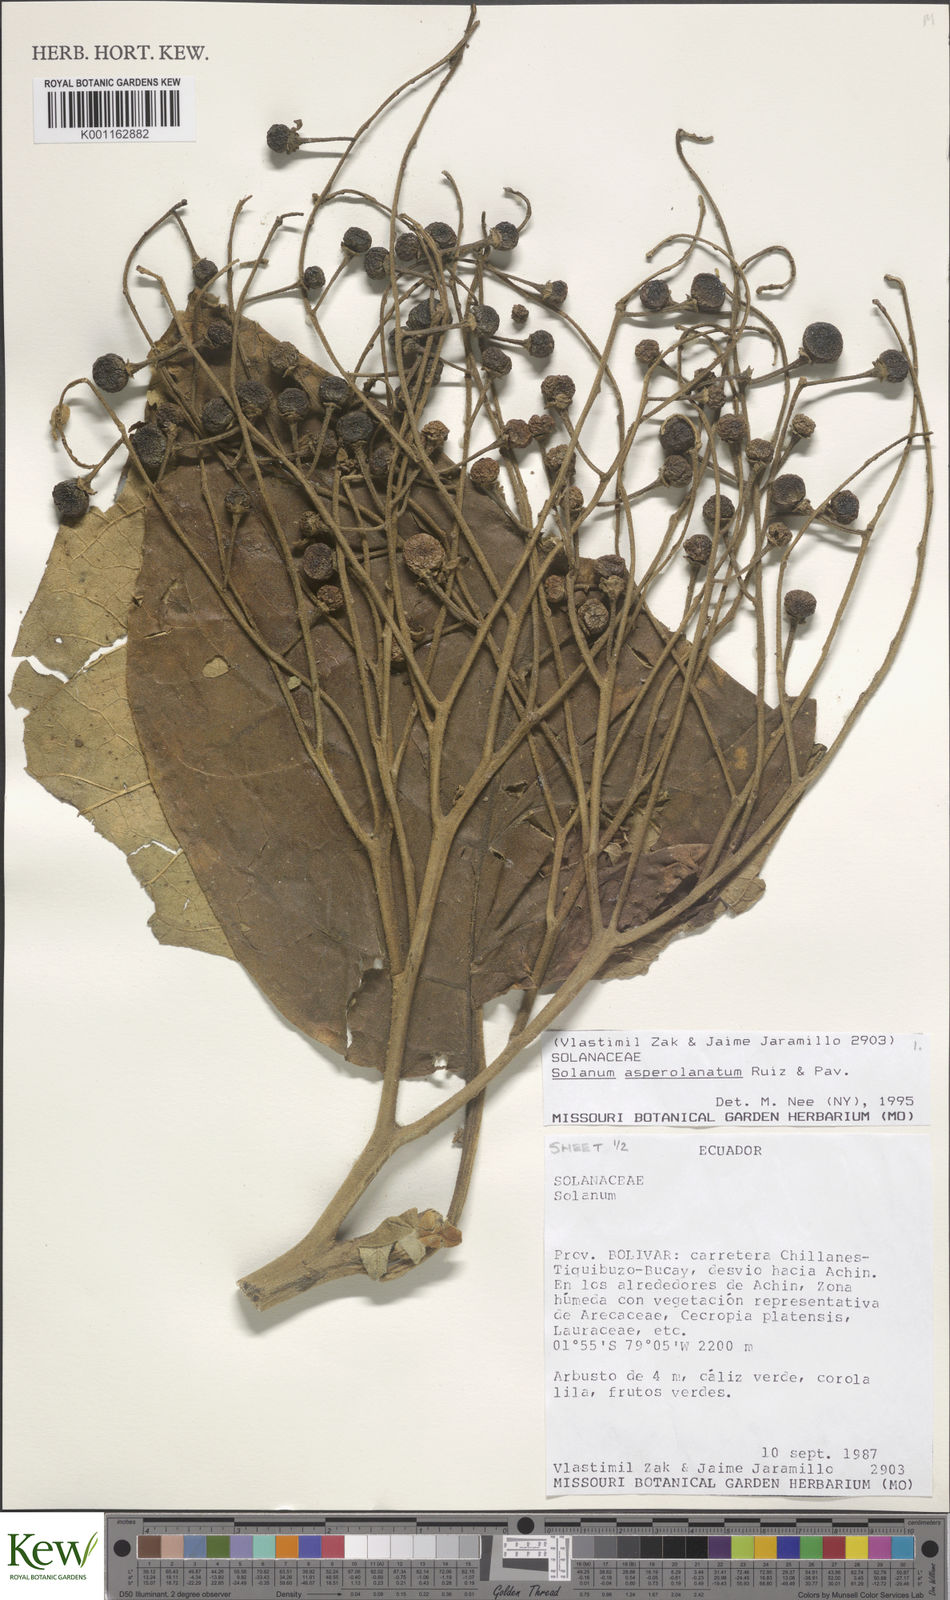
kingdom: Plantae
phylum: Tracheophyta
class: Magnoliopsida
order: Solanales
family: Solanaceae
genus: Solanum
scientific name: Solanum asperolanatum
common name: Devil's-fig
